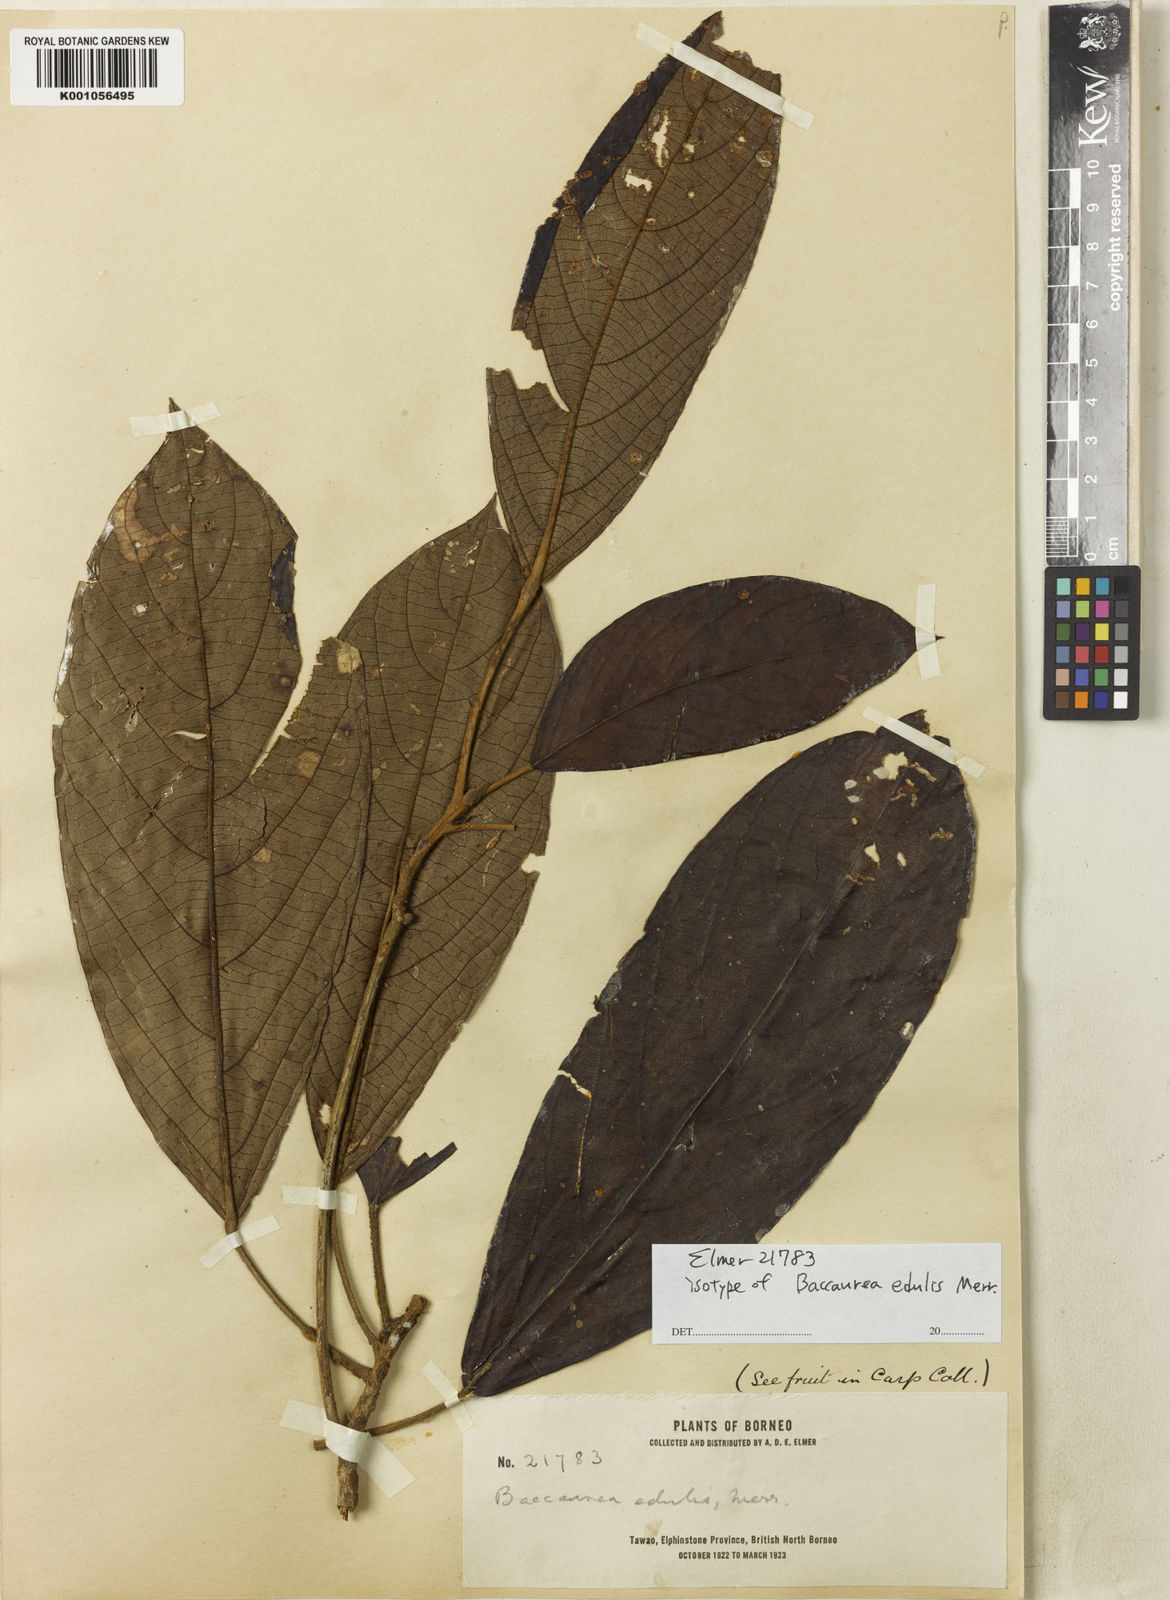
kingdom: Plantae
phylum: Tracheophyta
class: Magnoliopsida
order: Malpighiales
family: Phyllanthaceae
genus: Baccaurea
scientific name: Baccaurea edulis
